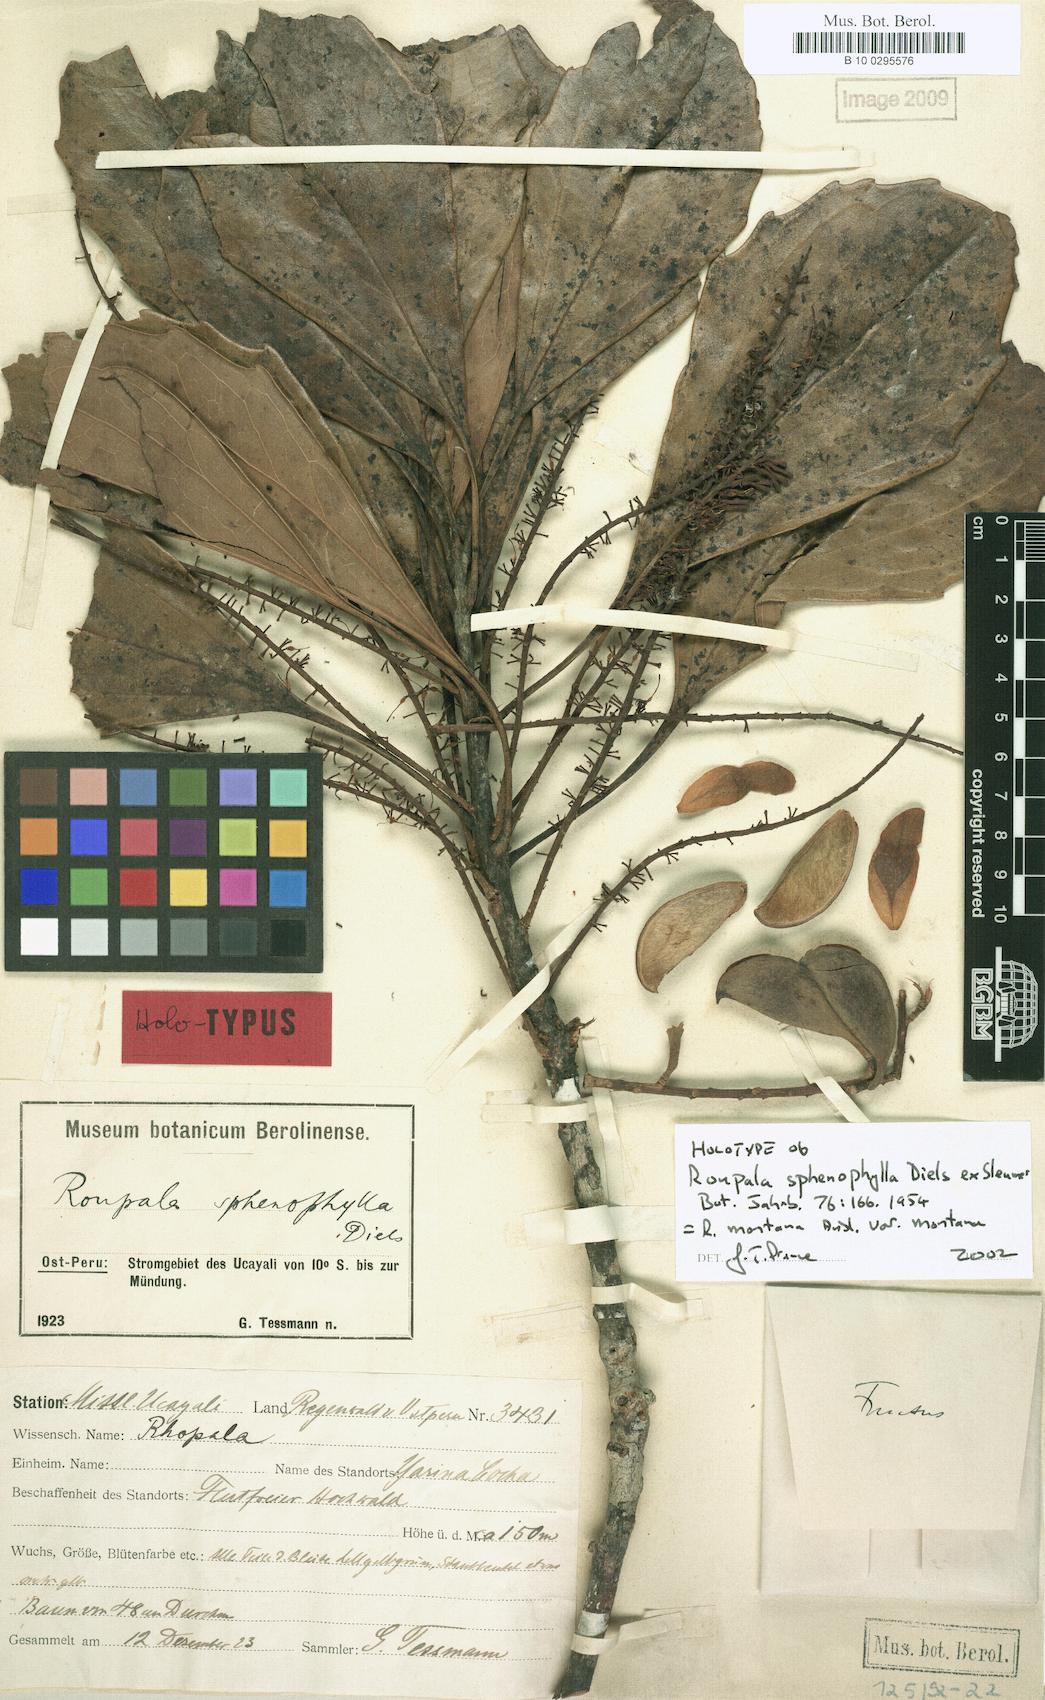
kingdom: Plantae
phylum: Tracheophyta
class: Magnoliopsida
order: Proteales
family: Proteaceae
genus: Roupala
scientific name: Roupala montana
